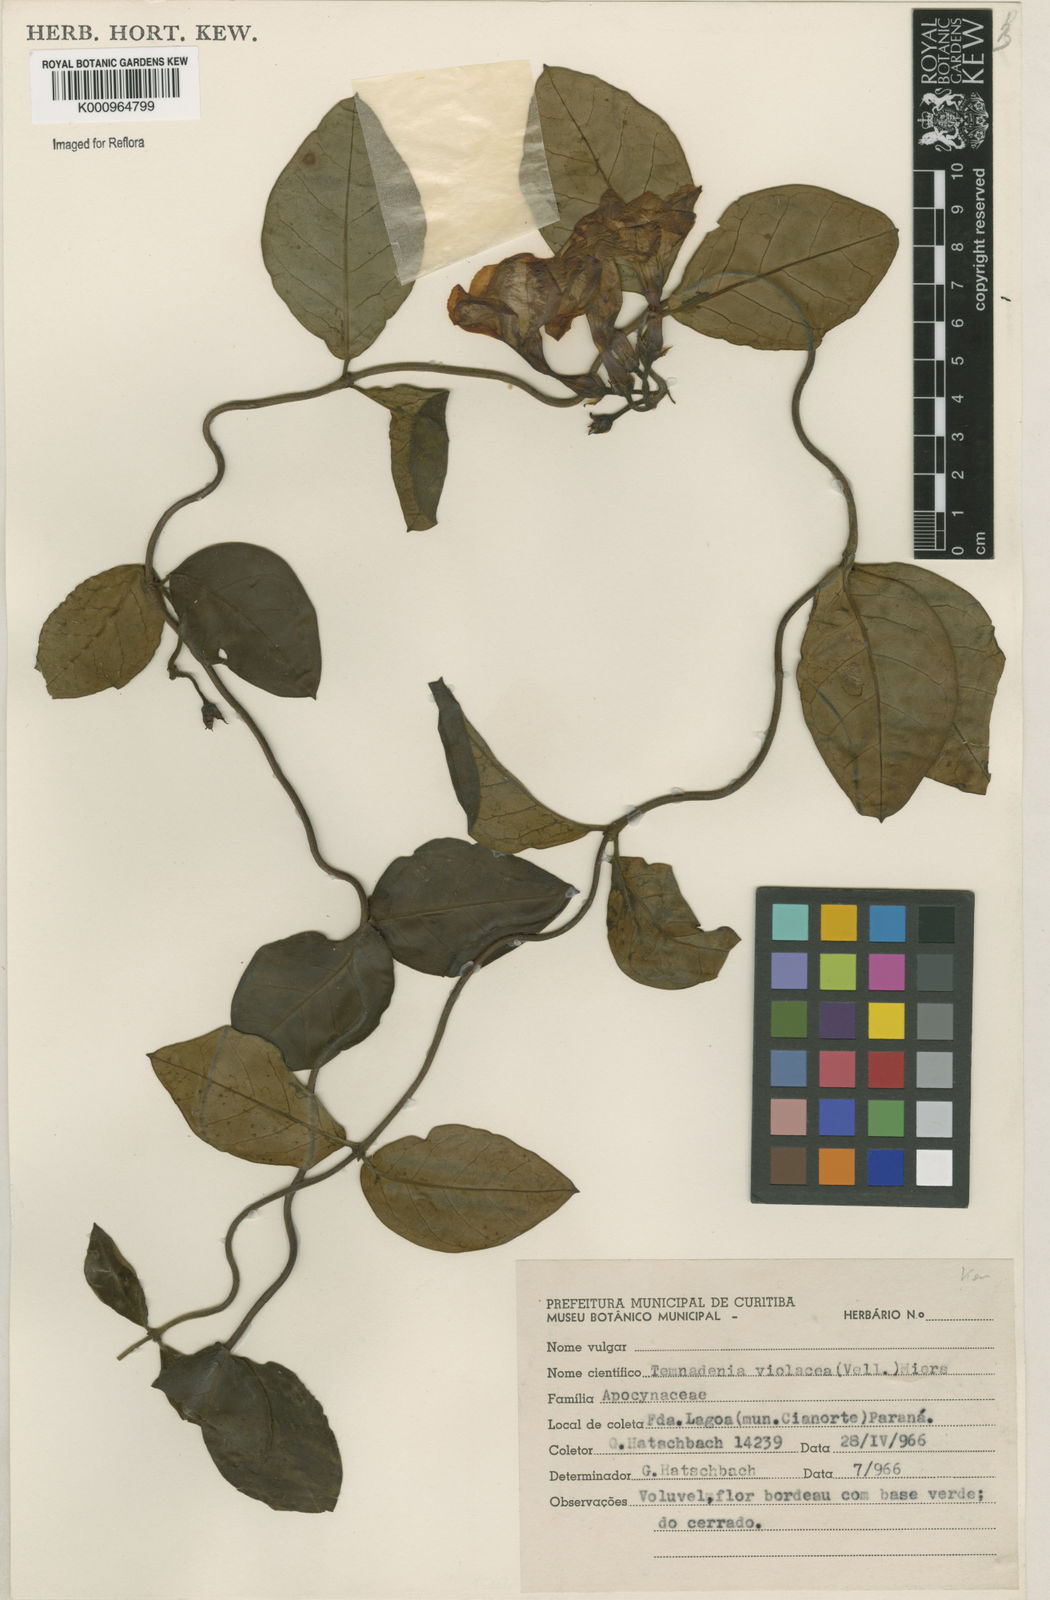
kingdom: Plantae
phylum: Tracheophyta
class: Magnoliopsida
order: Gentianales
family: Apocynaceae
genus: Temnadenia
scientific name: Temnadenia violacea
